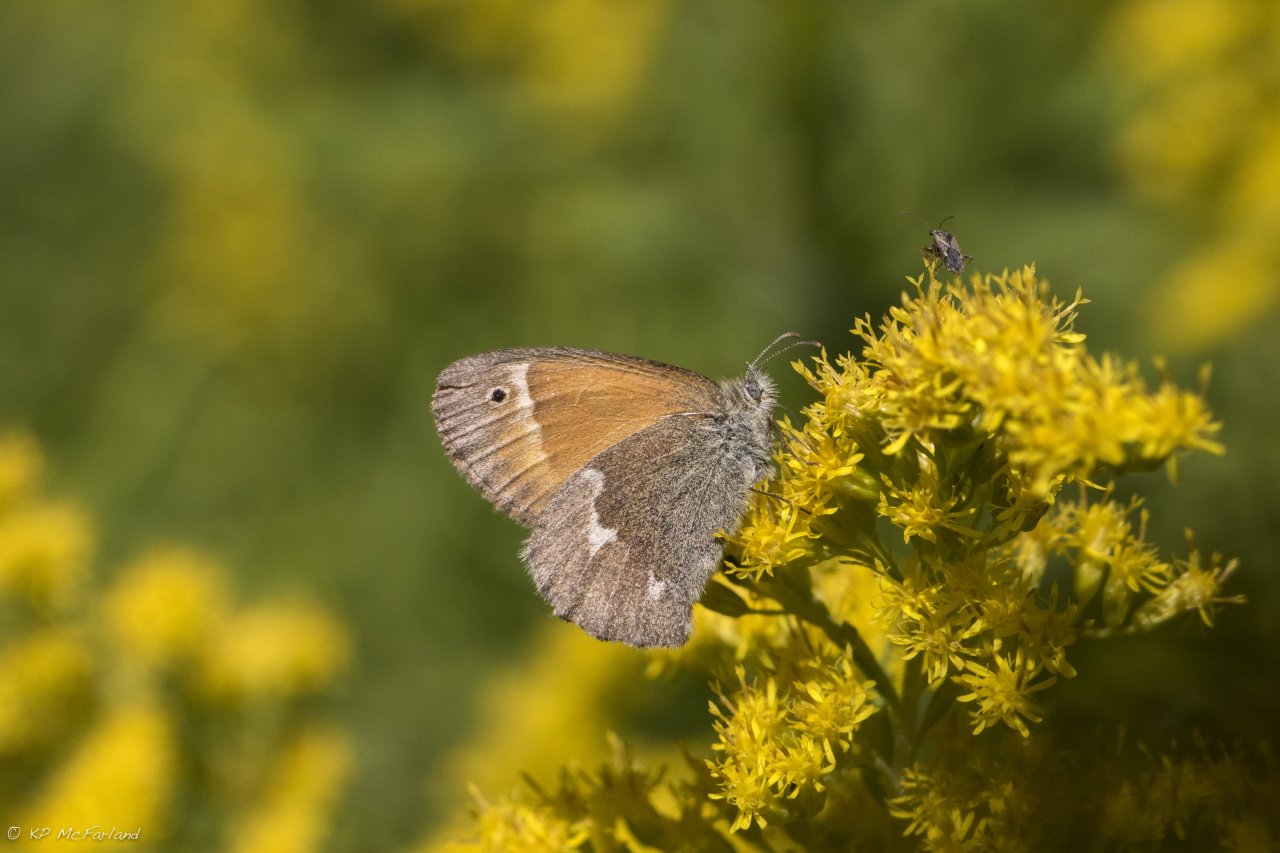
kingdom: Animalia
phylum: Arthropoda
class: Insecta
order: Lepidoptera
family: Nymphalidae
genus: Coenonympha
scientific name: Coenonympha tullia
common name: Large Heath
